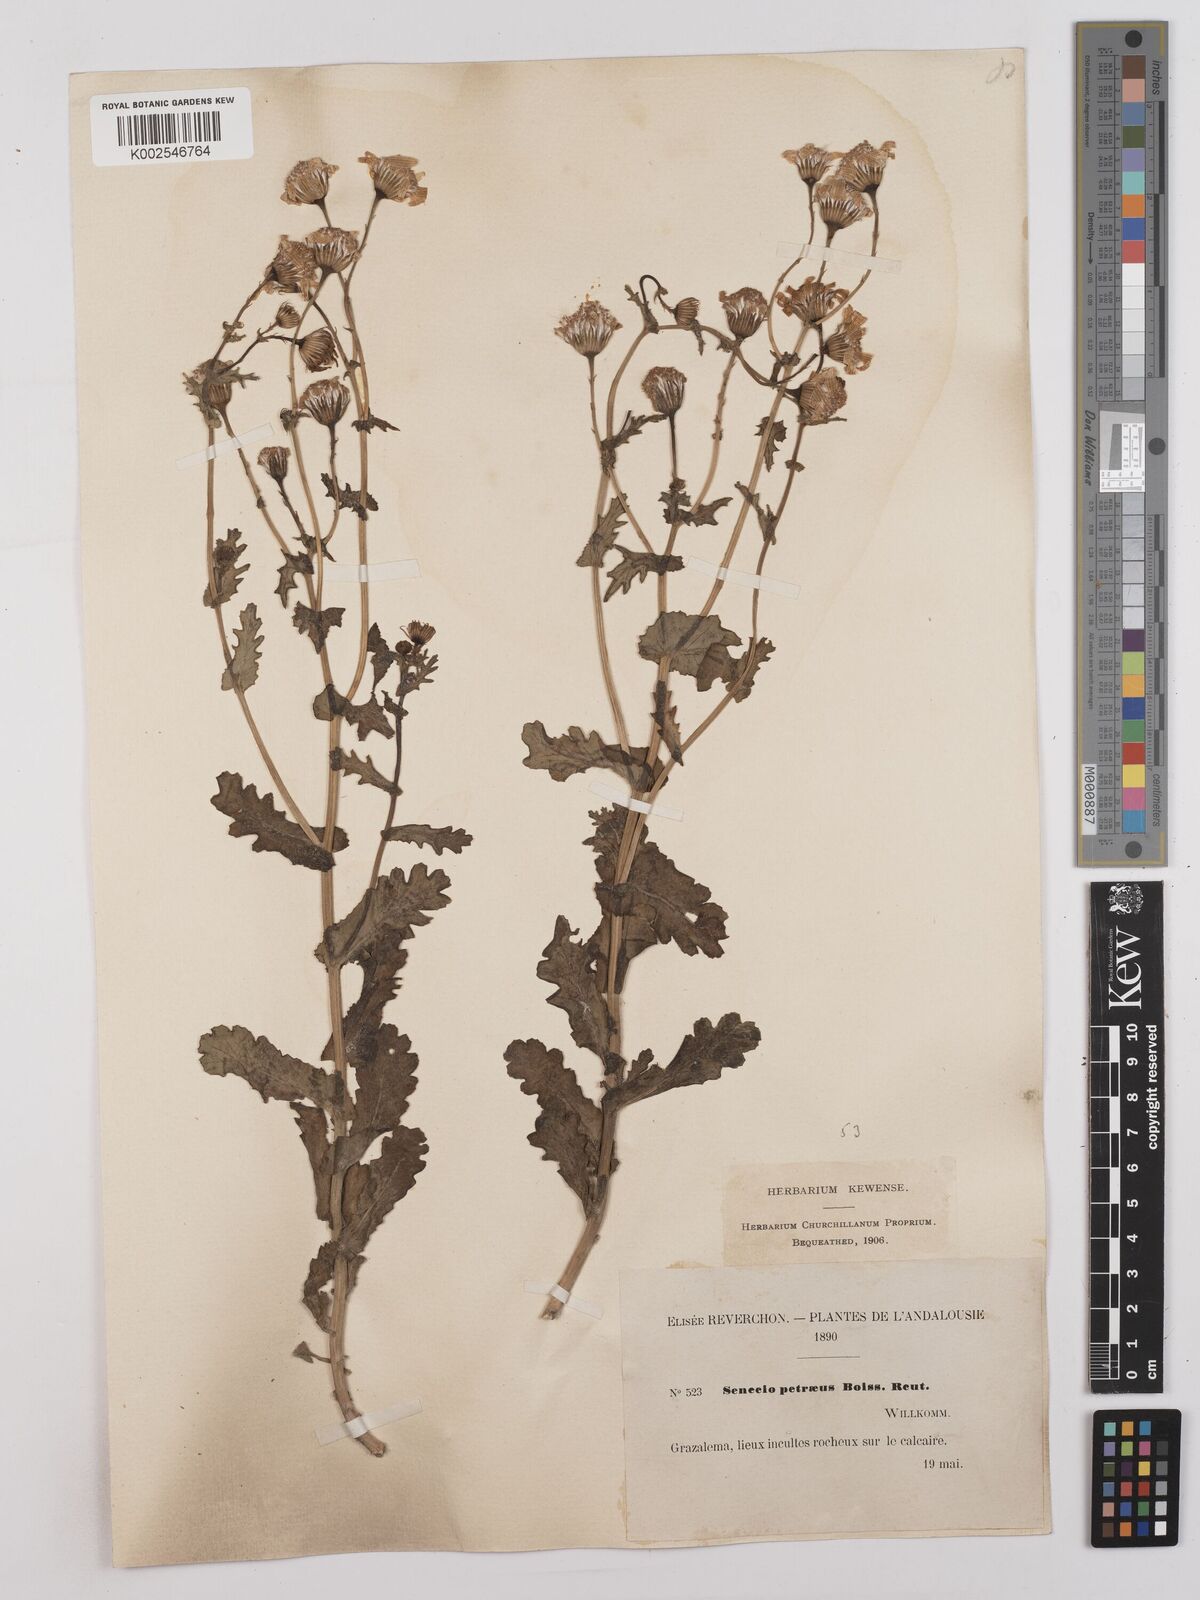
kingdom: Plantae
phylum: Tracheophyta
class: Magnoliopsida
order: Asterales
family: Asteraceae
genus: Kleinia
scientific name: Kleinia petraea
